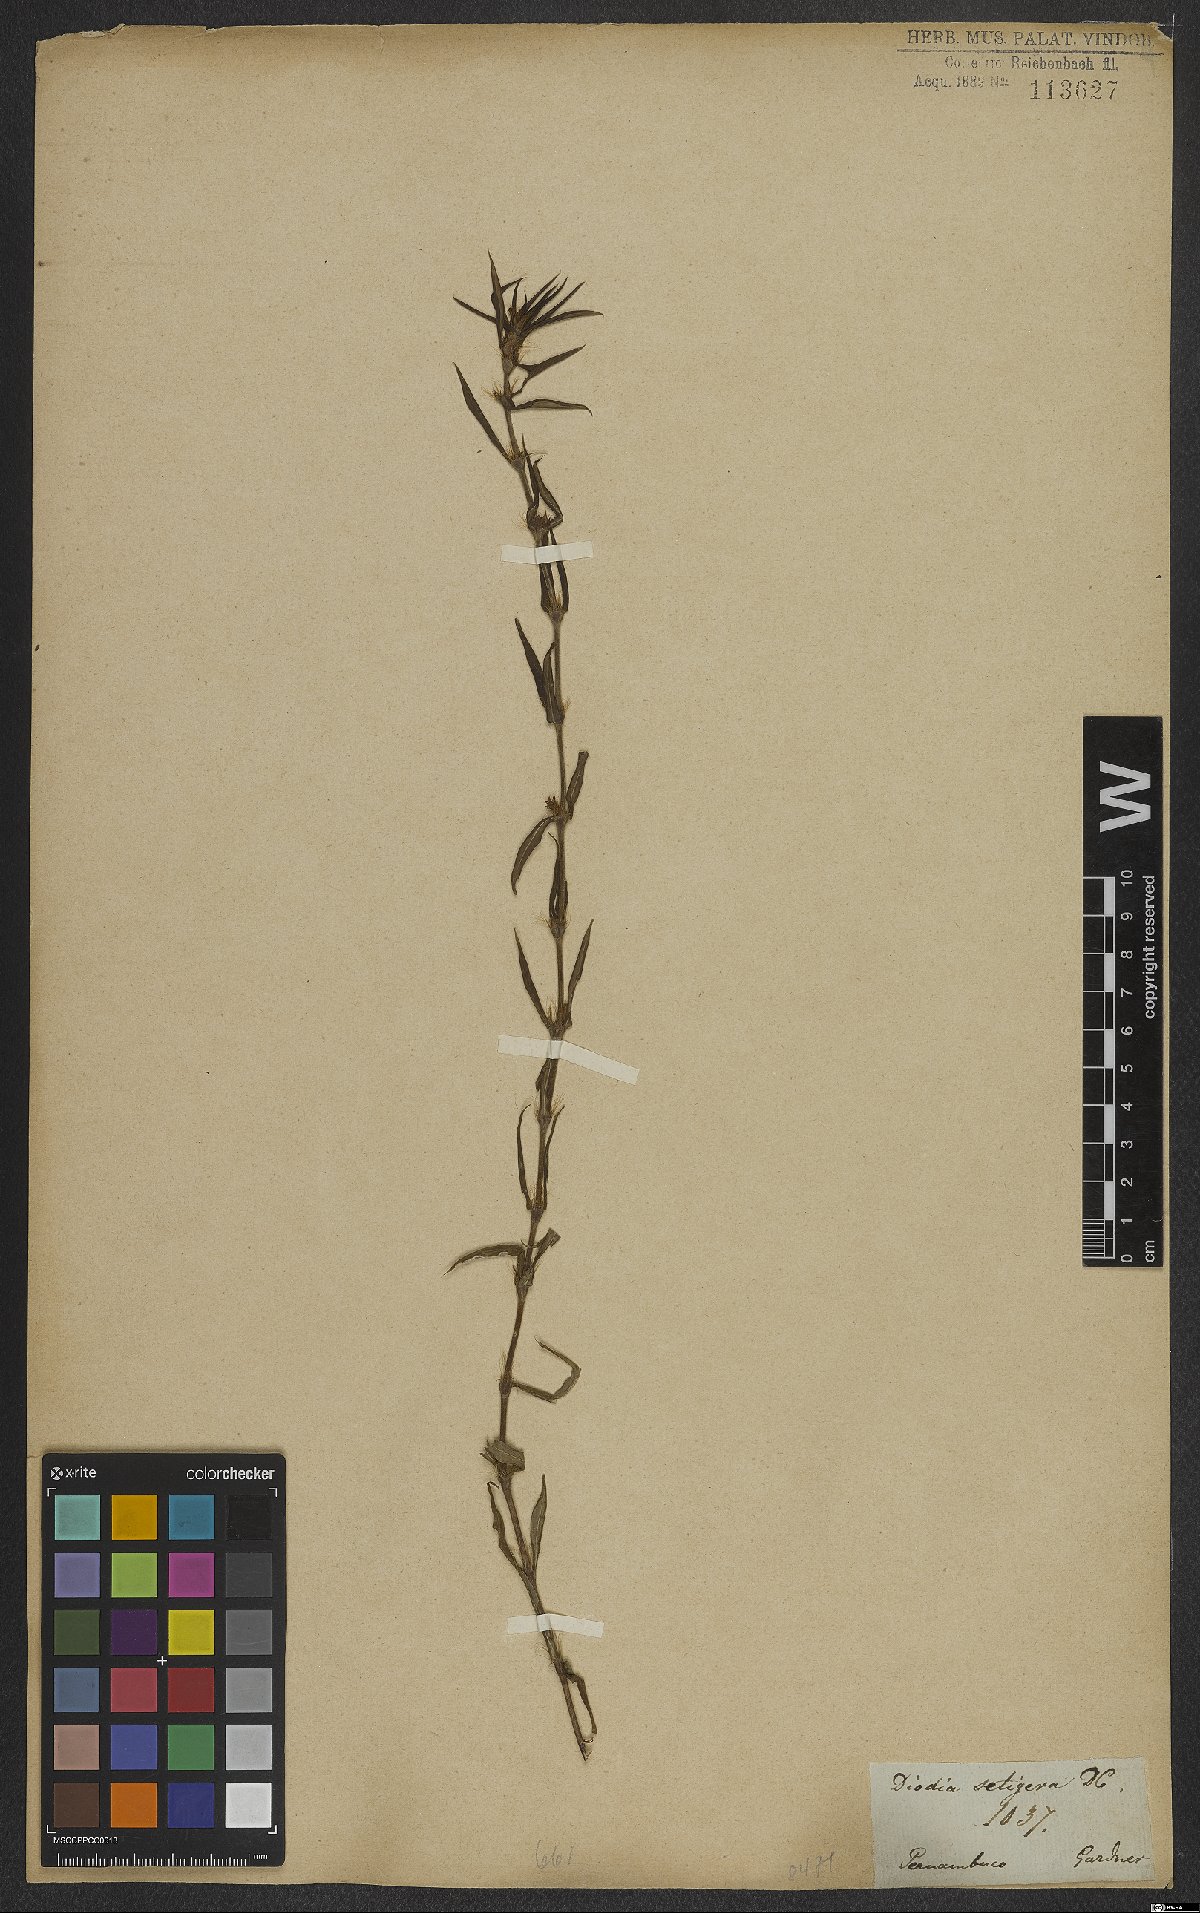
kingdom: Plantae
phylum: Tracheophyta
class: Magnoliopsida
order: Gentianales
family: Rubiaceae
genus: Hexasepalum
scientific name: Hexasepalum apiculatum
